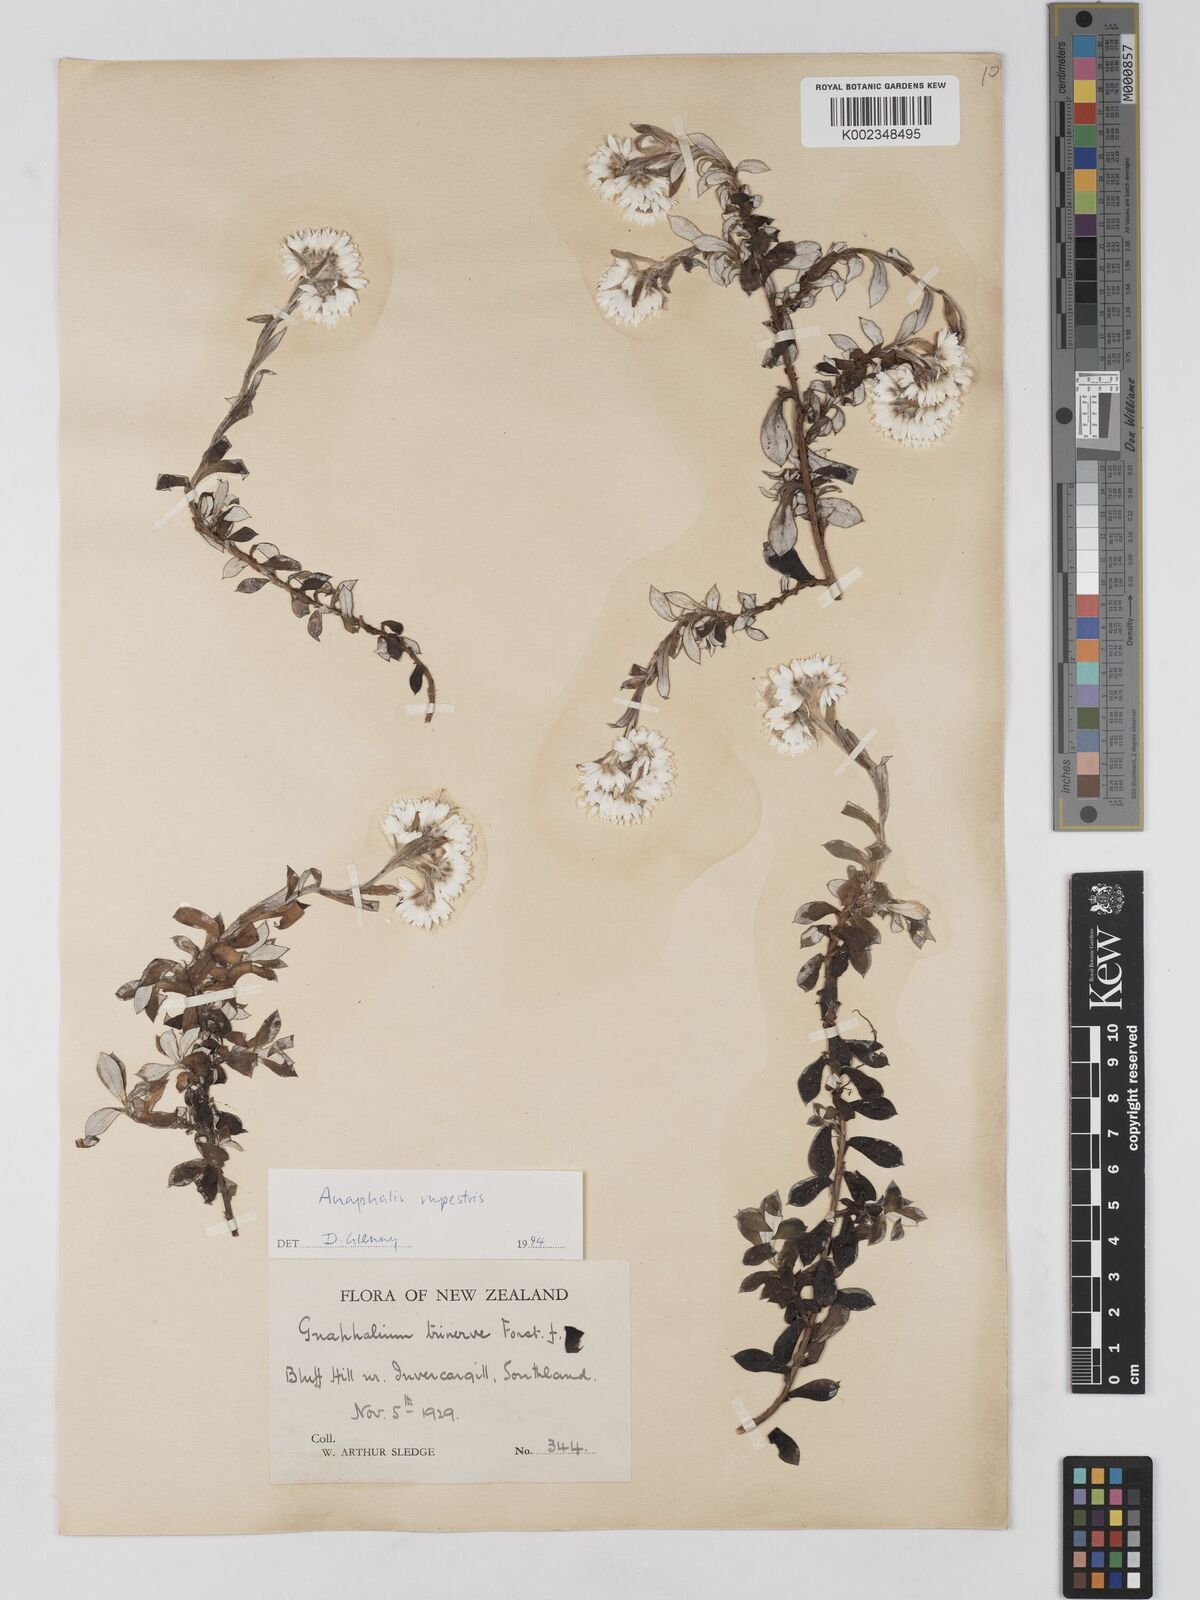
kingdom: Plantae
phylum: Tracheophyta
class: Magnoliopsida
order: Asterales
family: Asteraceae
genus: Anaphaloides
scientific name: Anaphaloides
